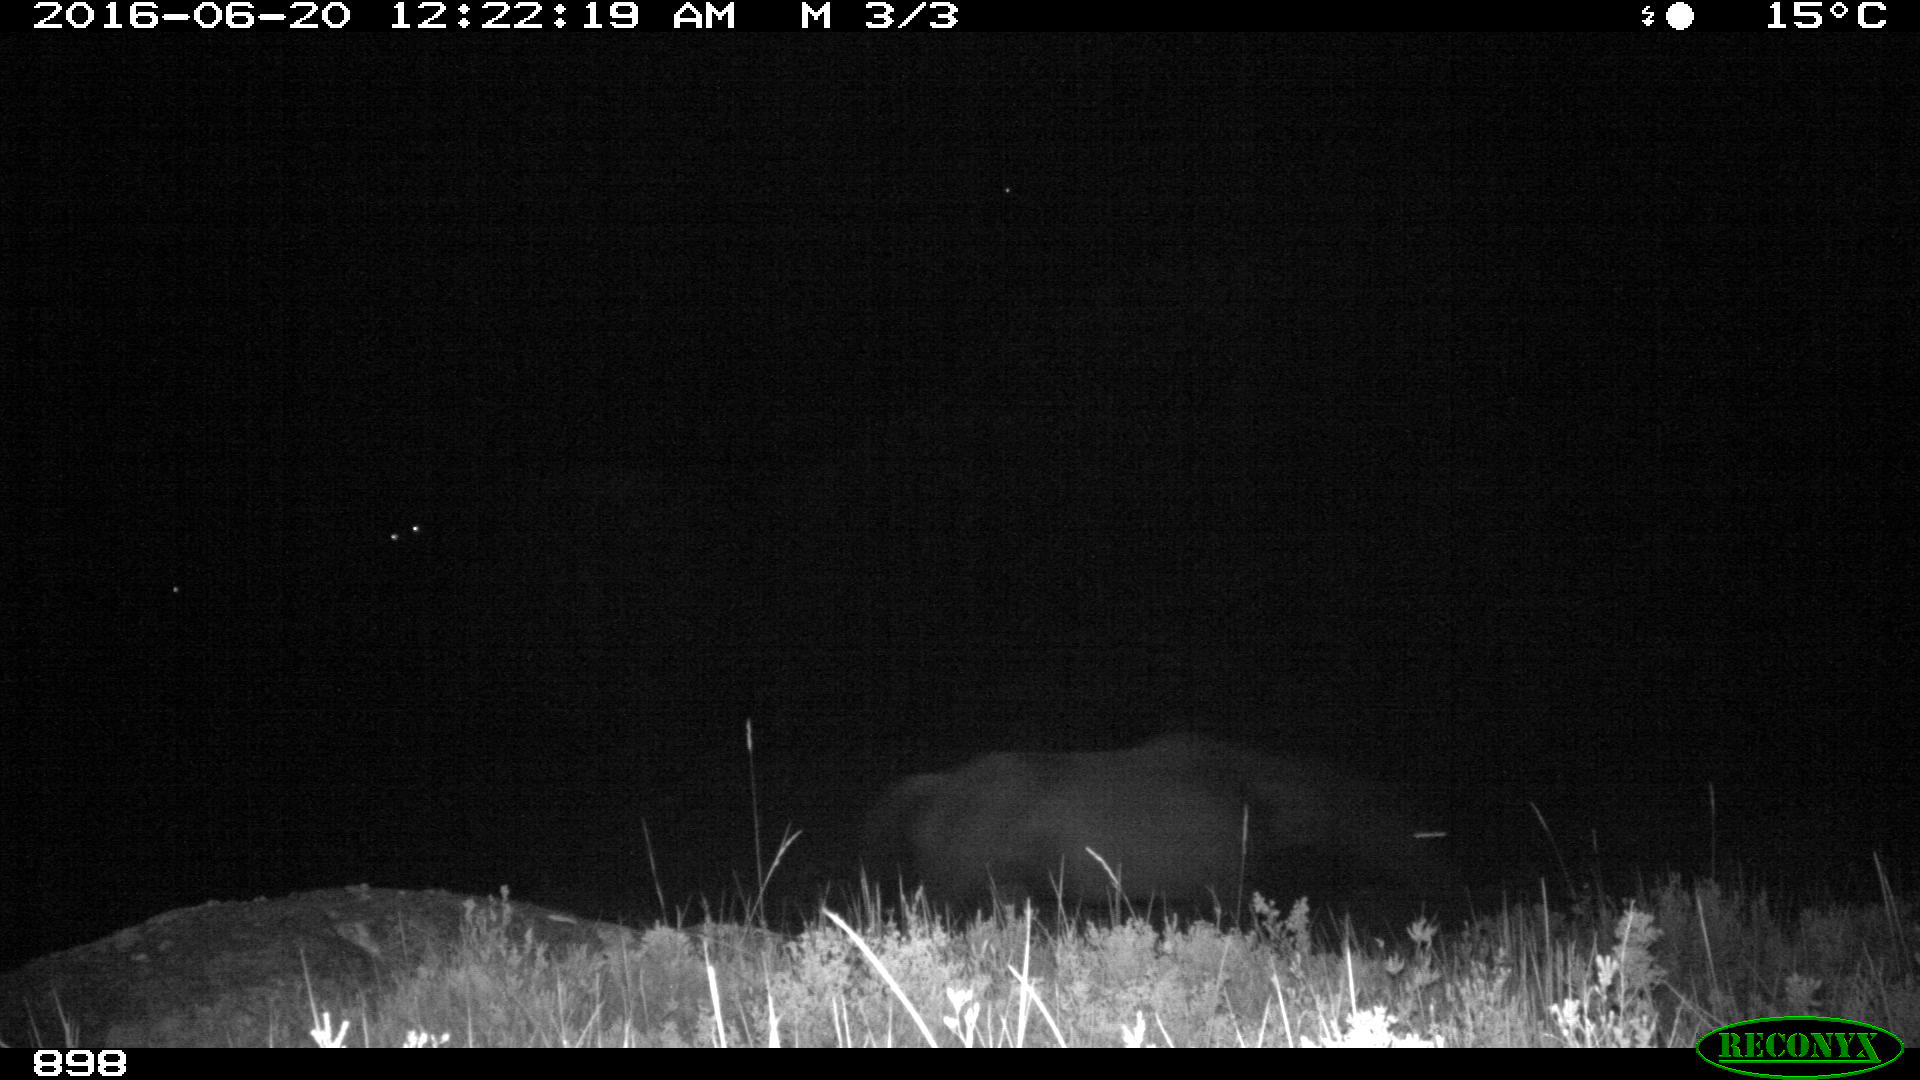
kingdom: Animalia
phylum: Chordata
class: Mammalia
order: Perissodactyla
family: Equidae
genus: Equus
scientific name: Equus caballus
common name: Horse
